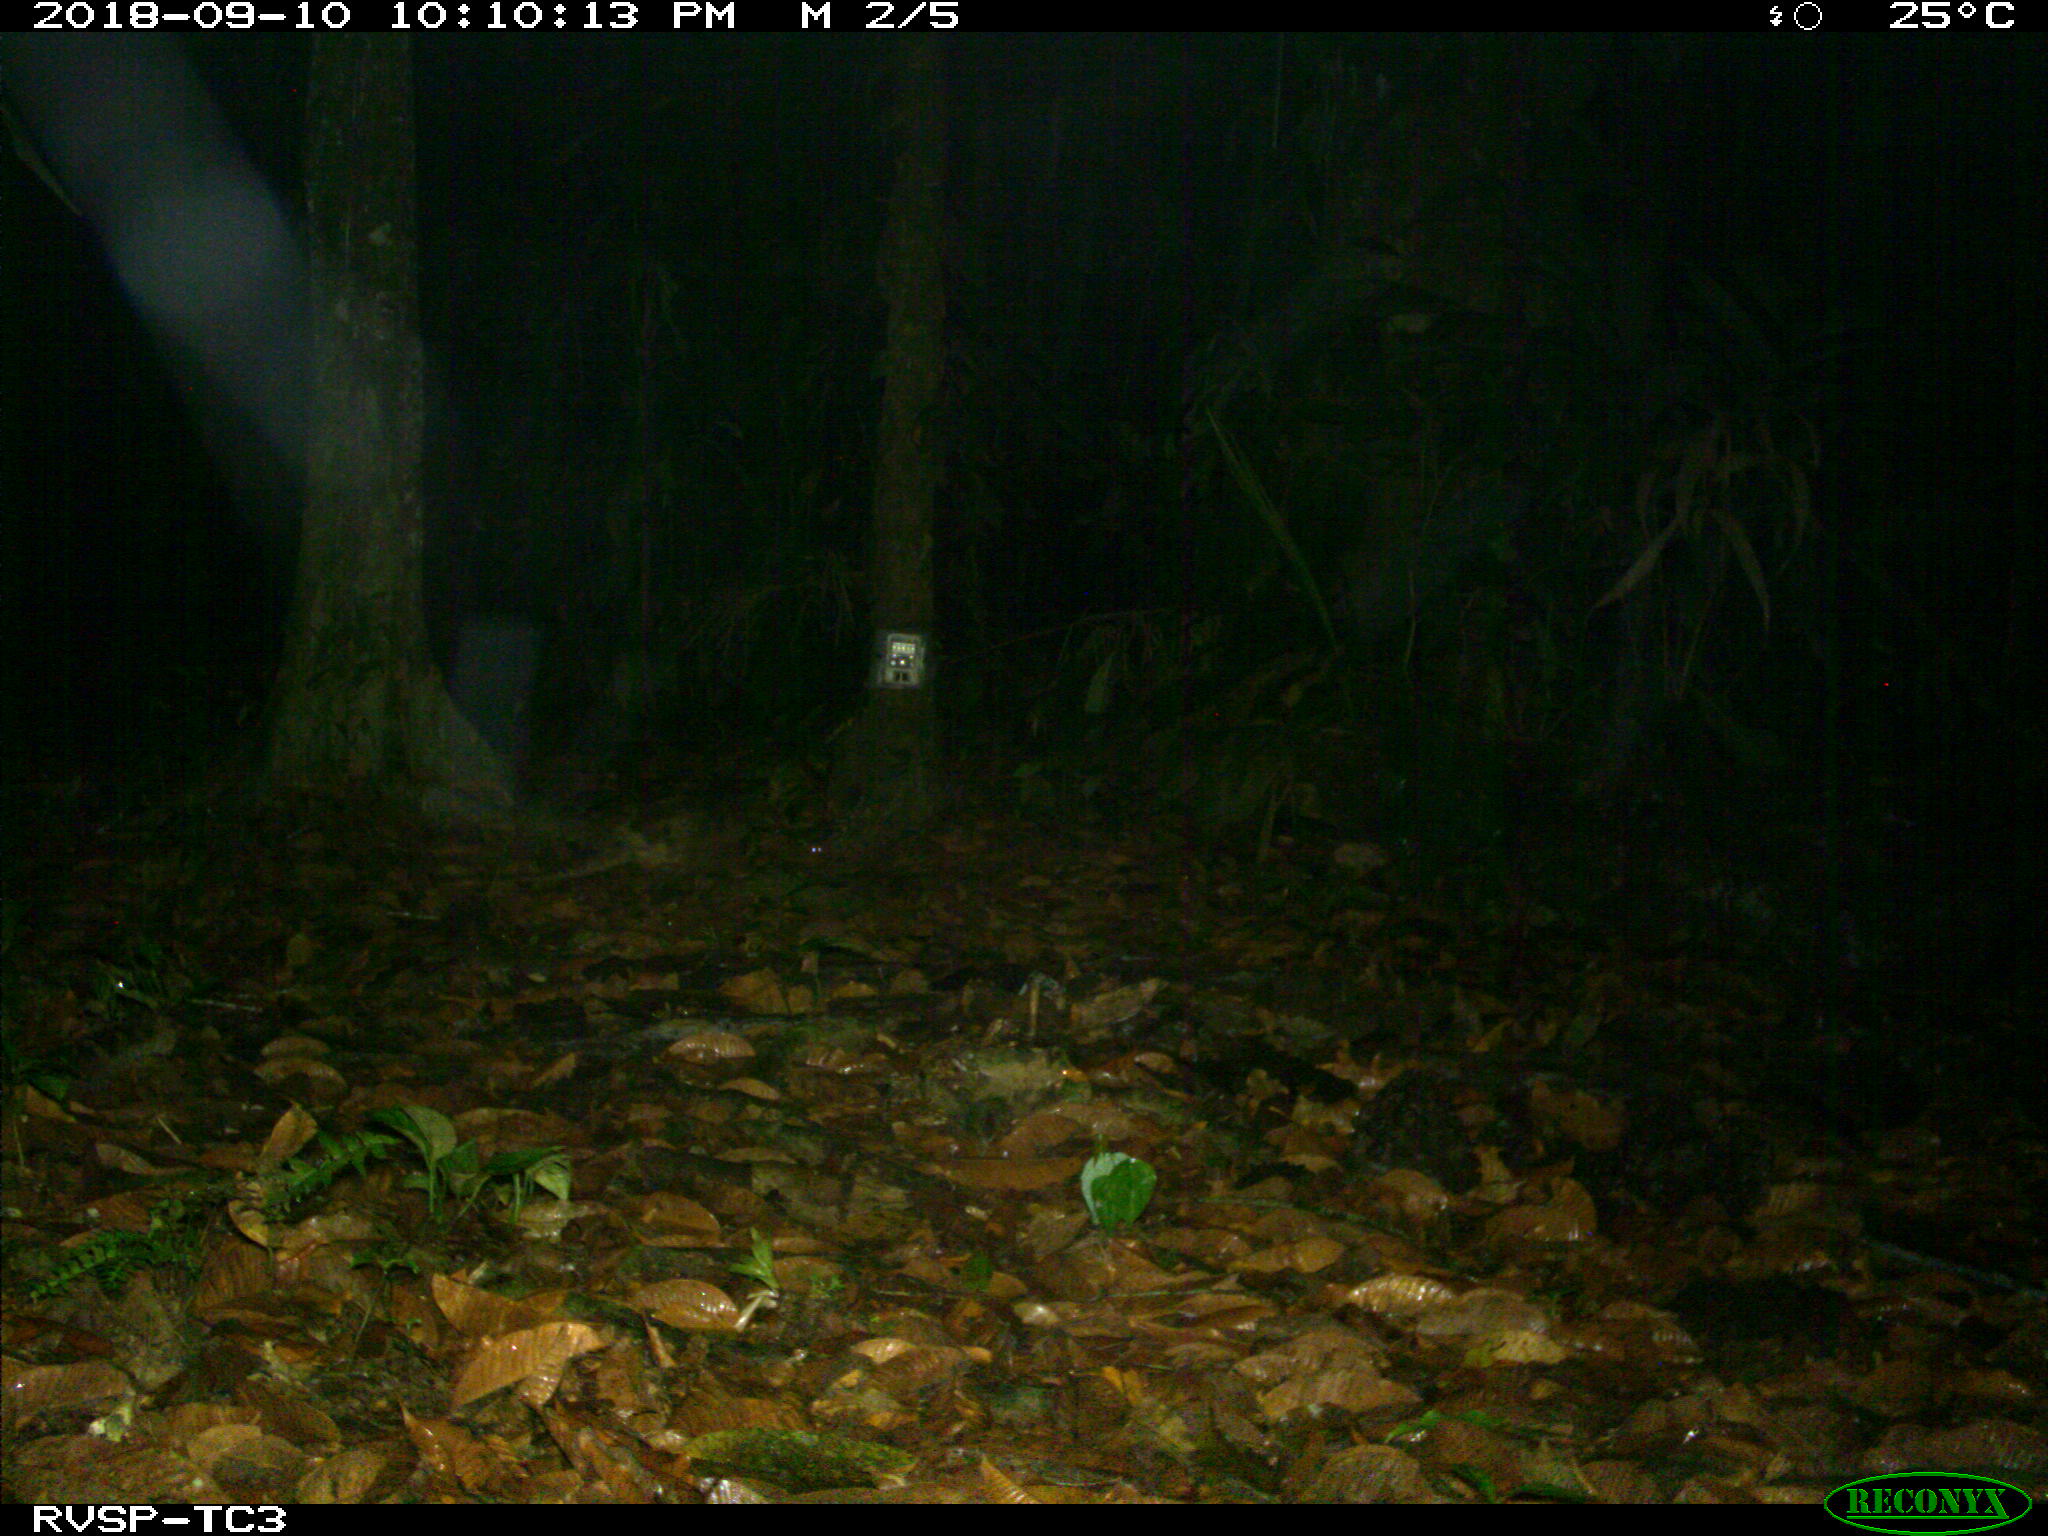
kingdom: Animalia
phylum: Chordata
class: Mammalia
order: Rodentia
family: Echimyidae
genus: Proechimys
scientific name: Proechimys
